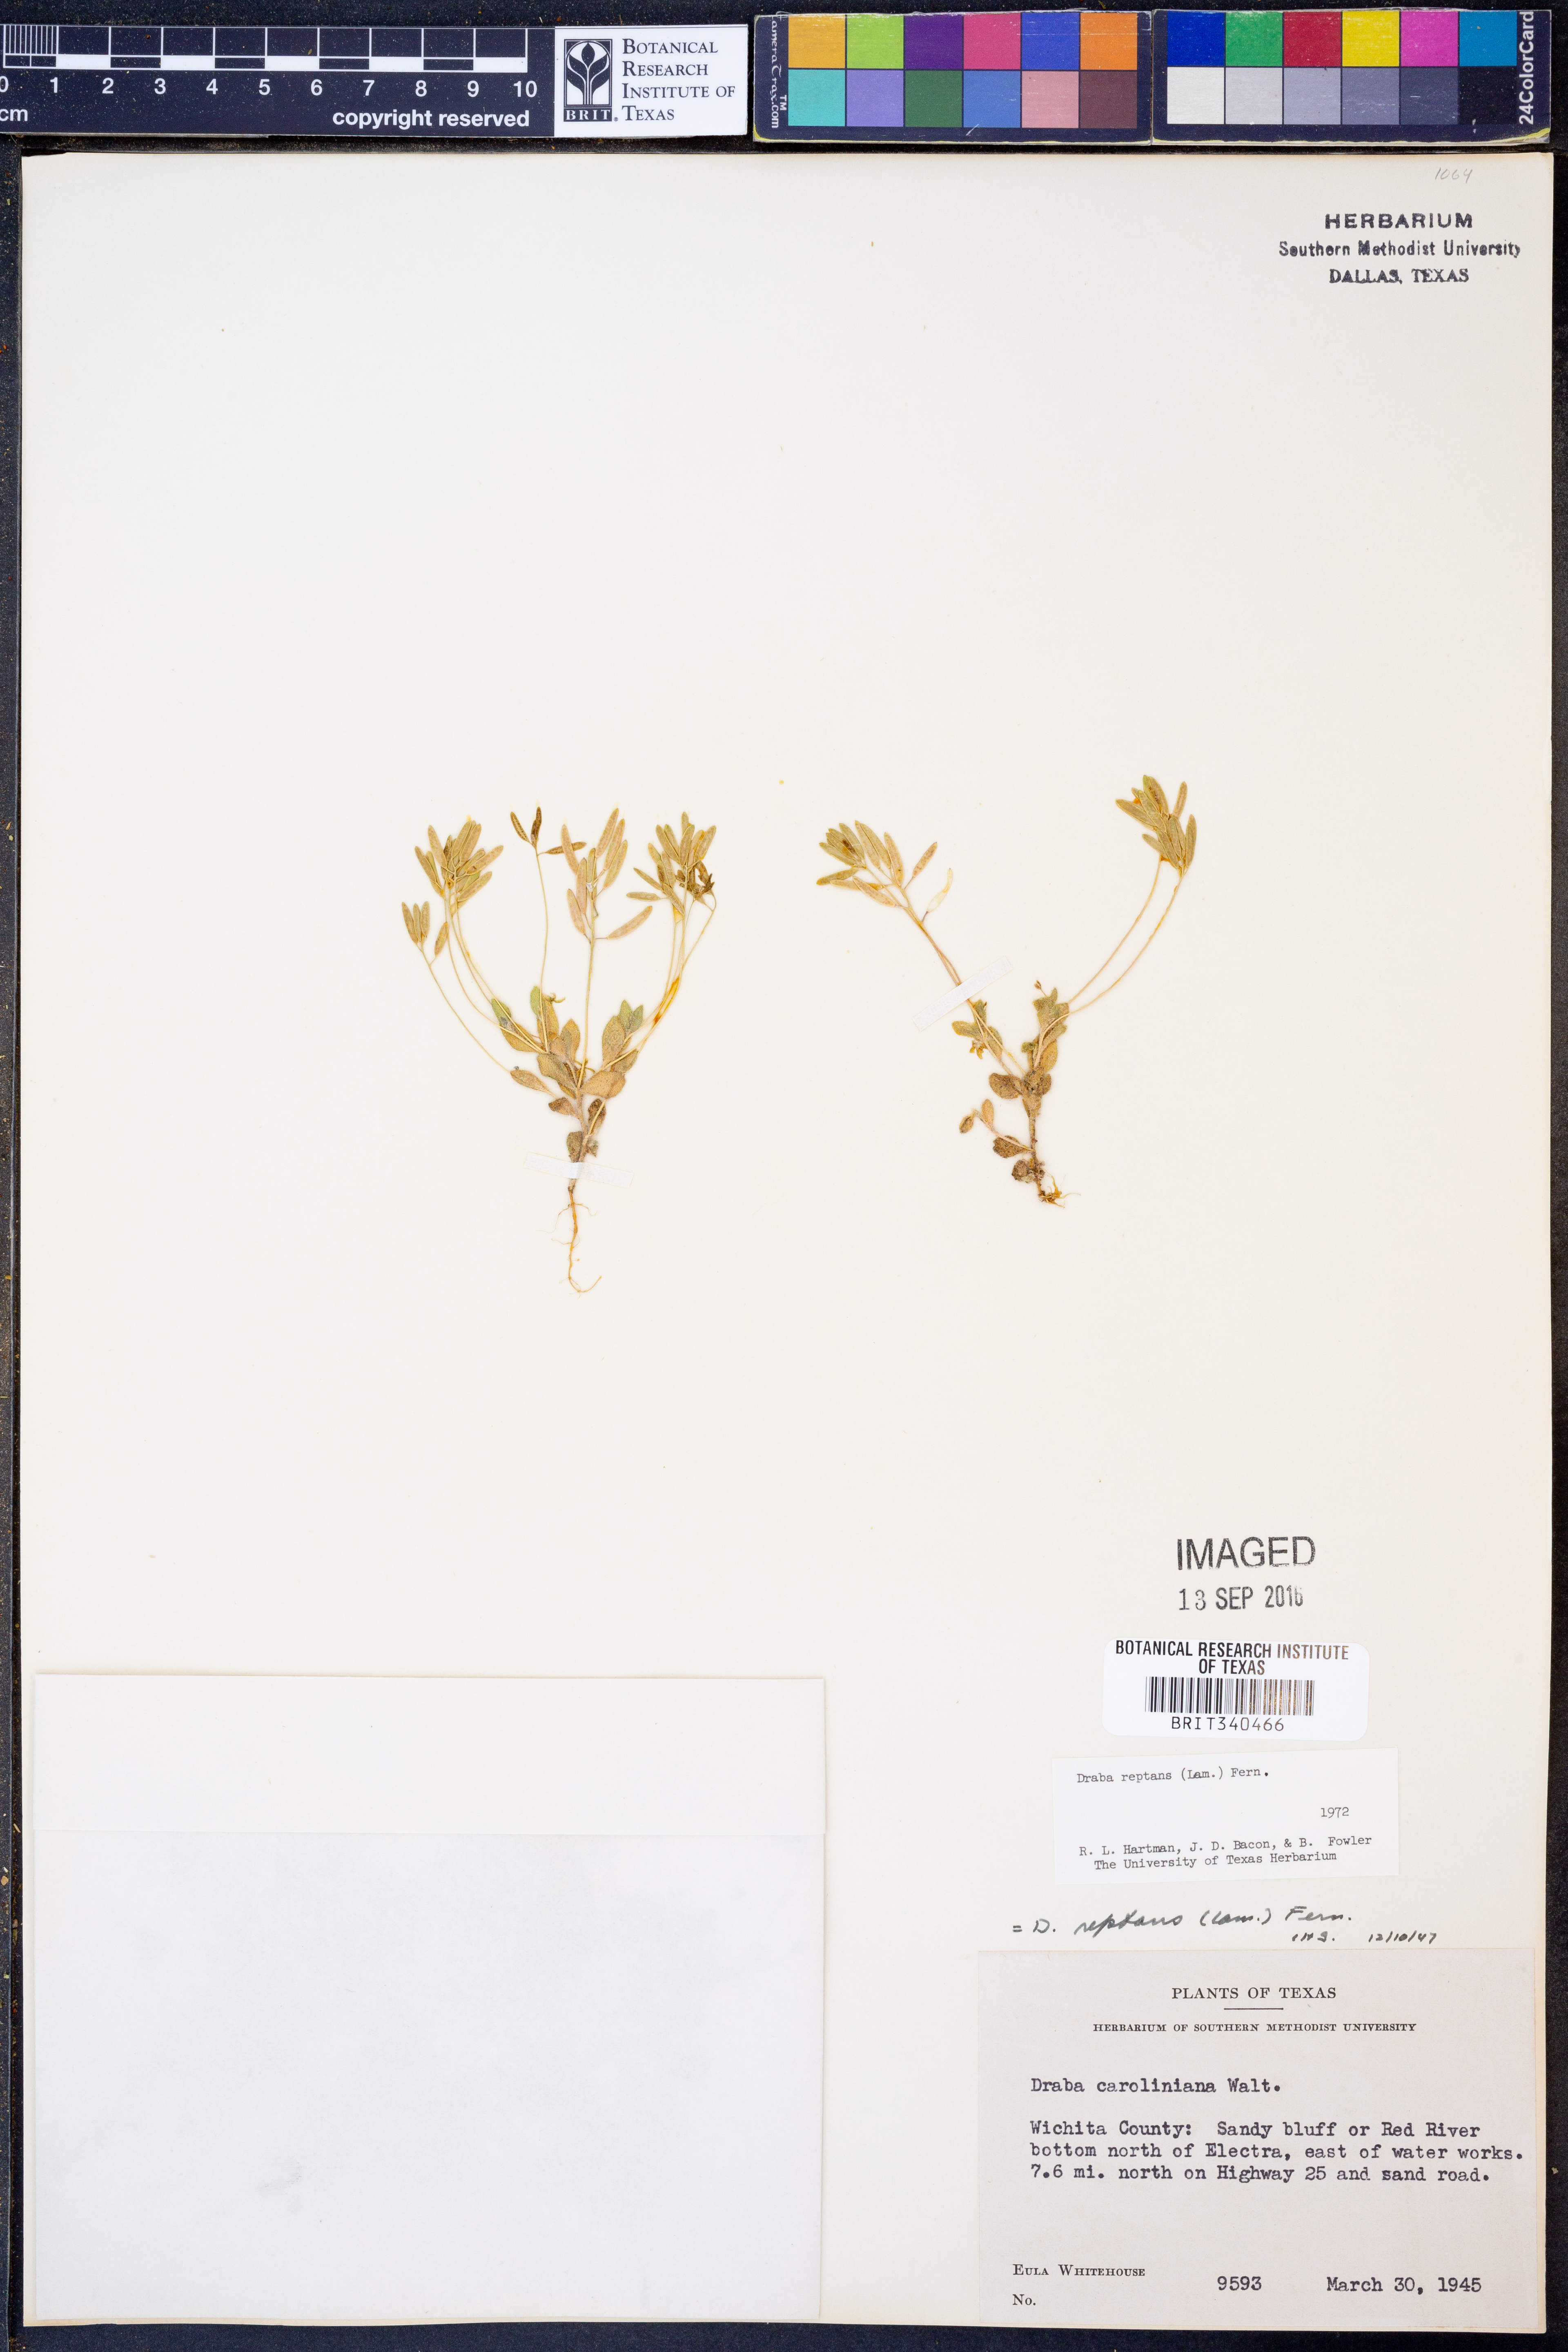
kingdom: Plantae
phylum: Tracheophyta
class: Magnoliopsida
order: Brassicales
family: Brassicaceae
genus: Tomostima
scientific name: Tomostima reptans
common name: Carolina draba
